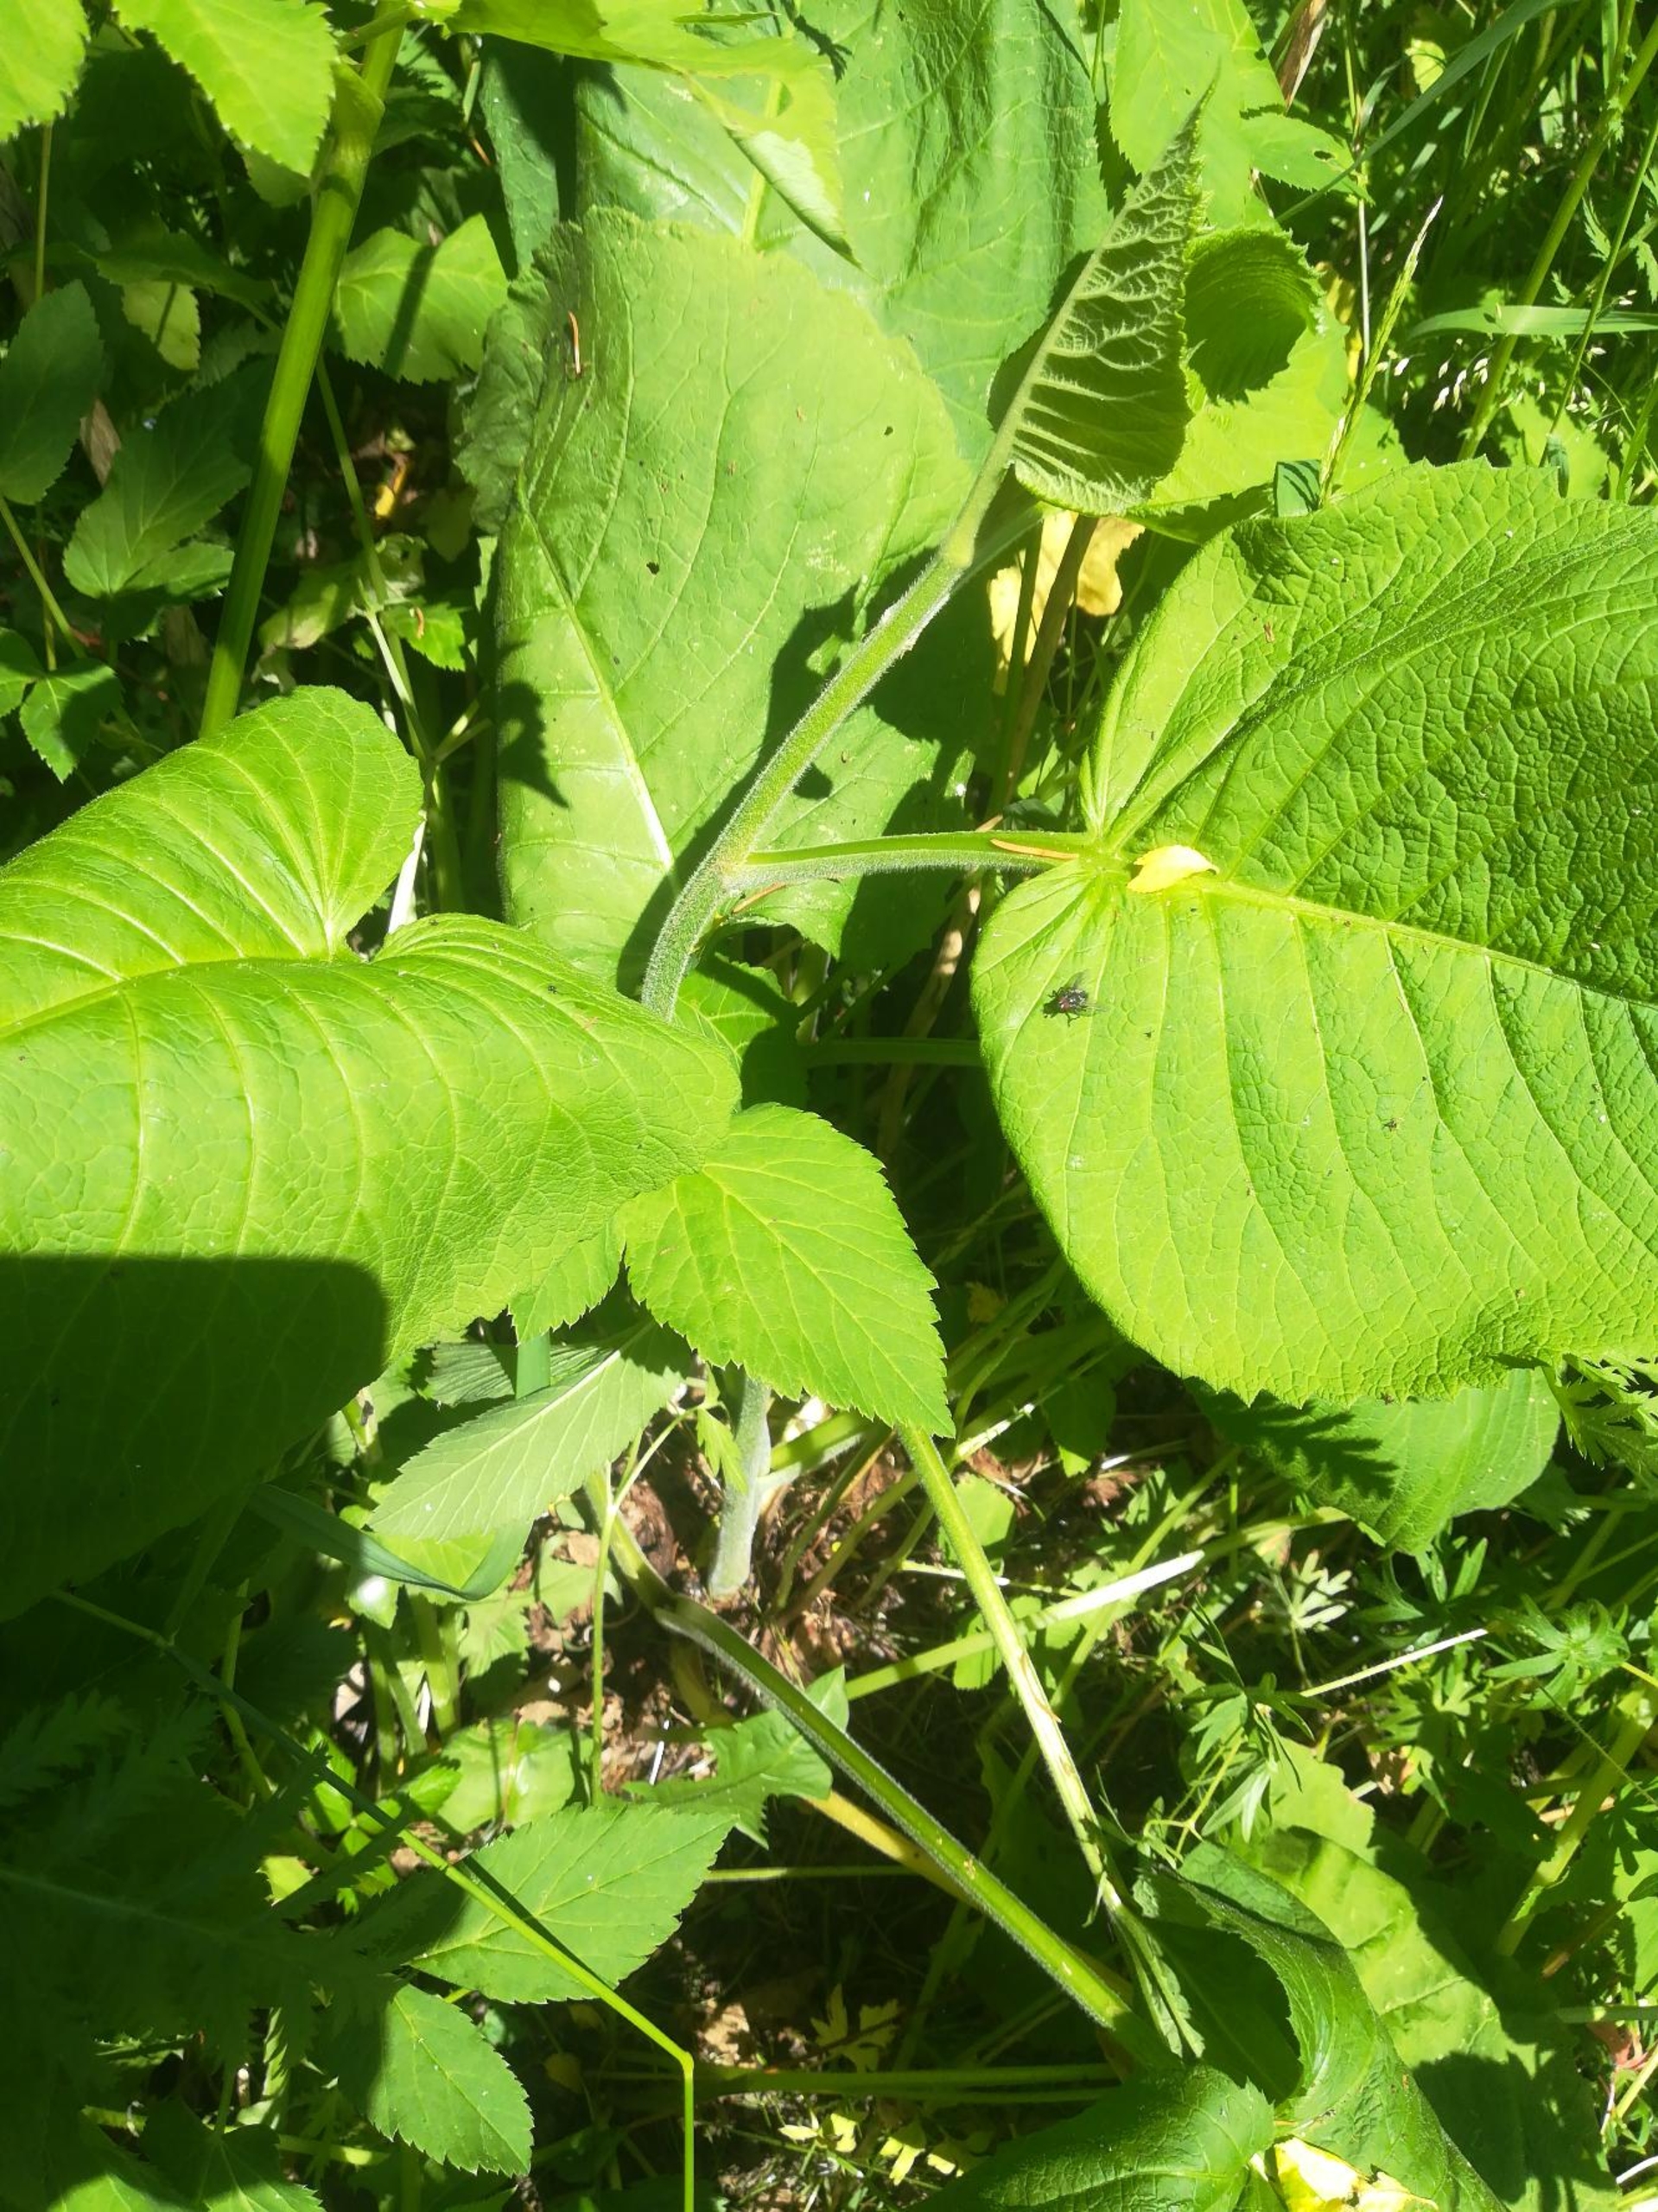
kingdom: Plantae
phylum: Tracheophyta
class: Magnoliopsida
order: Asterales
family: Asteraceae
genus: Telekia
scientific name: Telekia speciosa
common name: Tusindstråle
